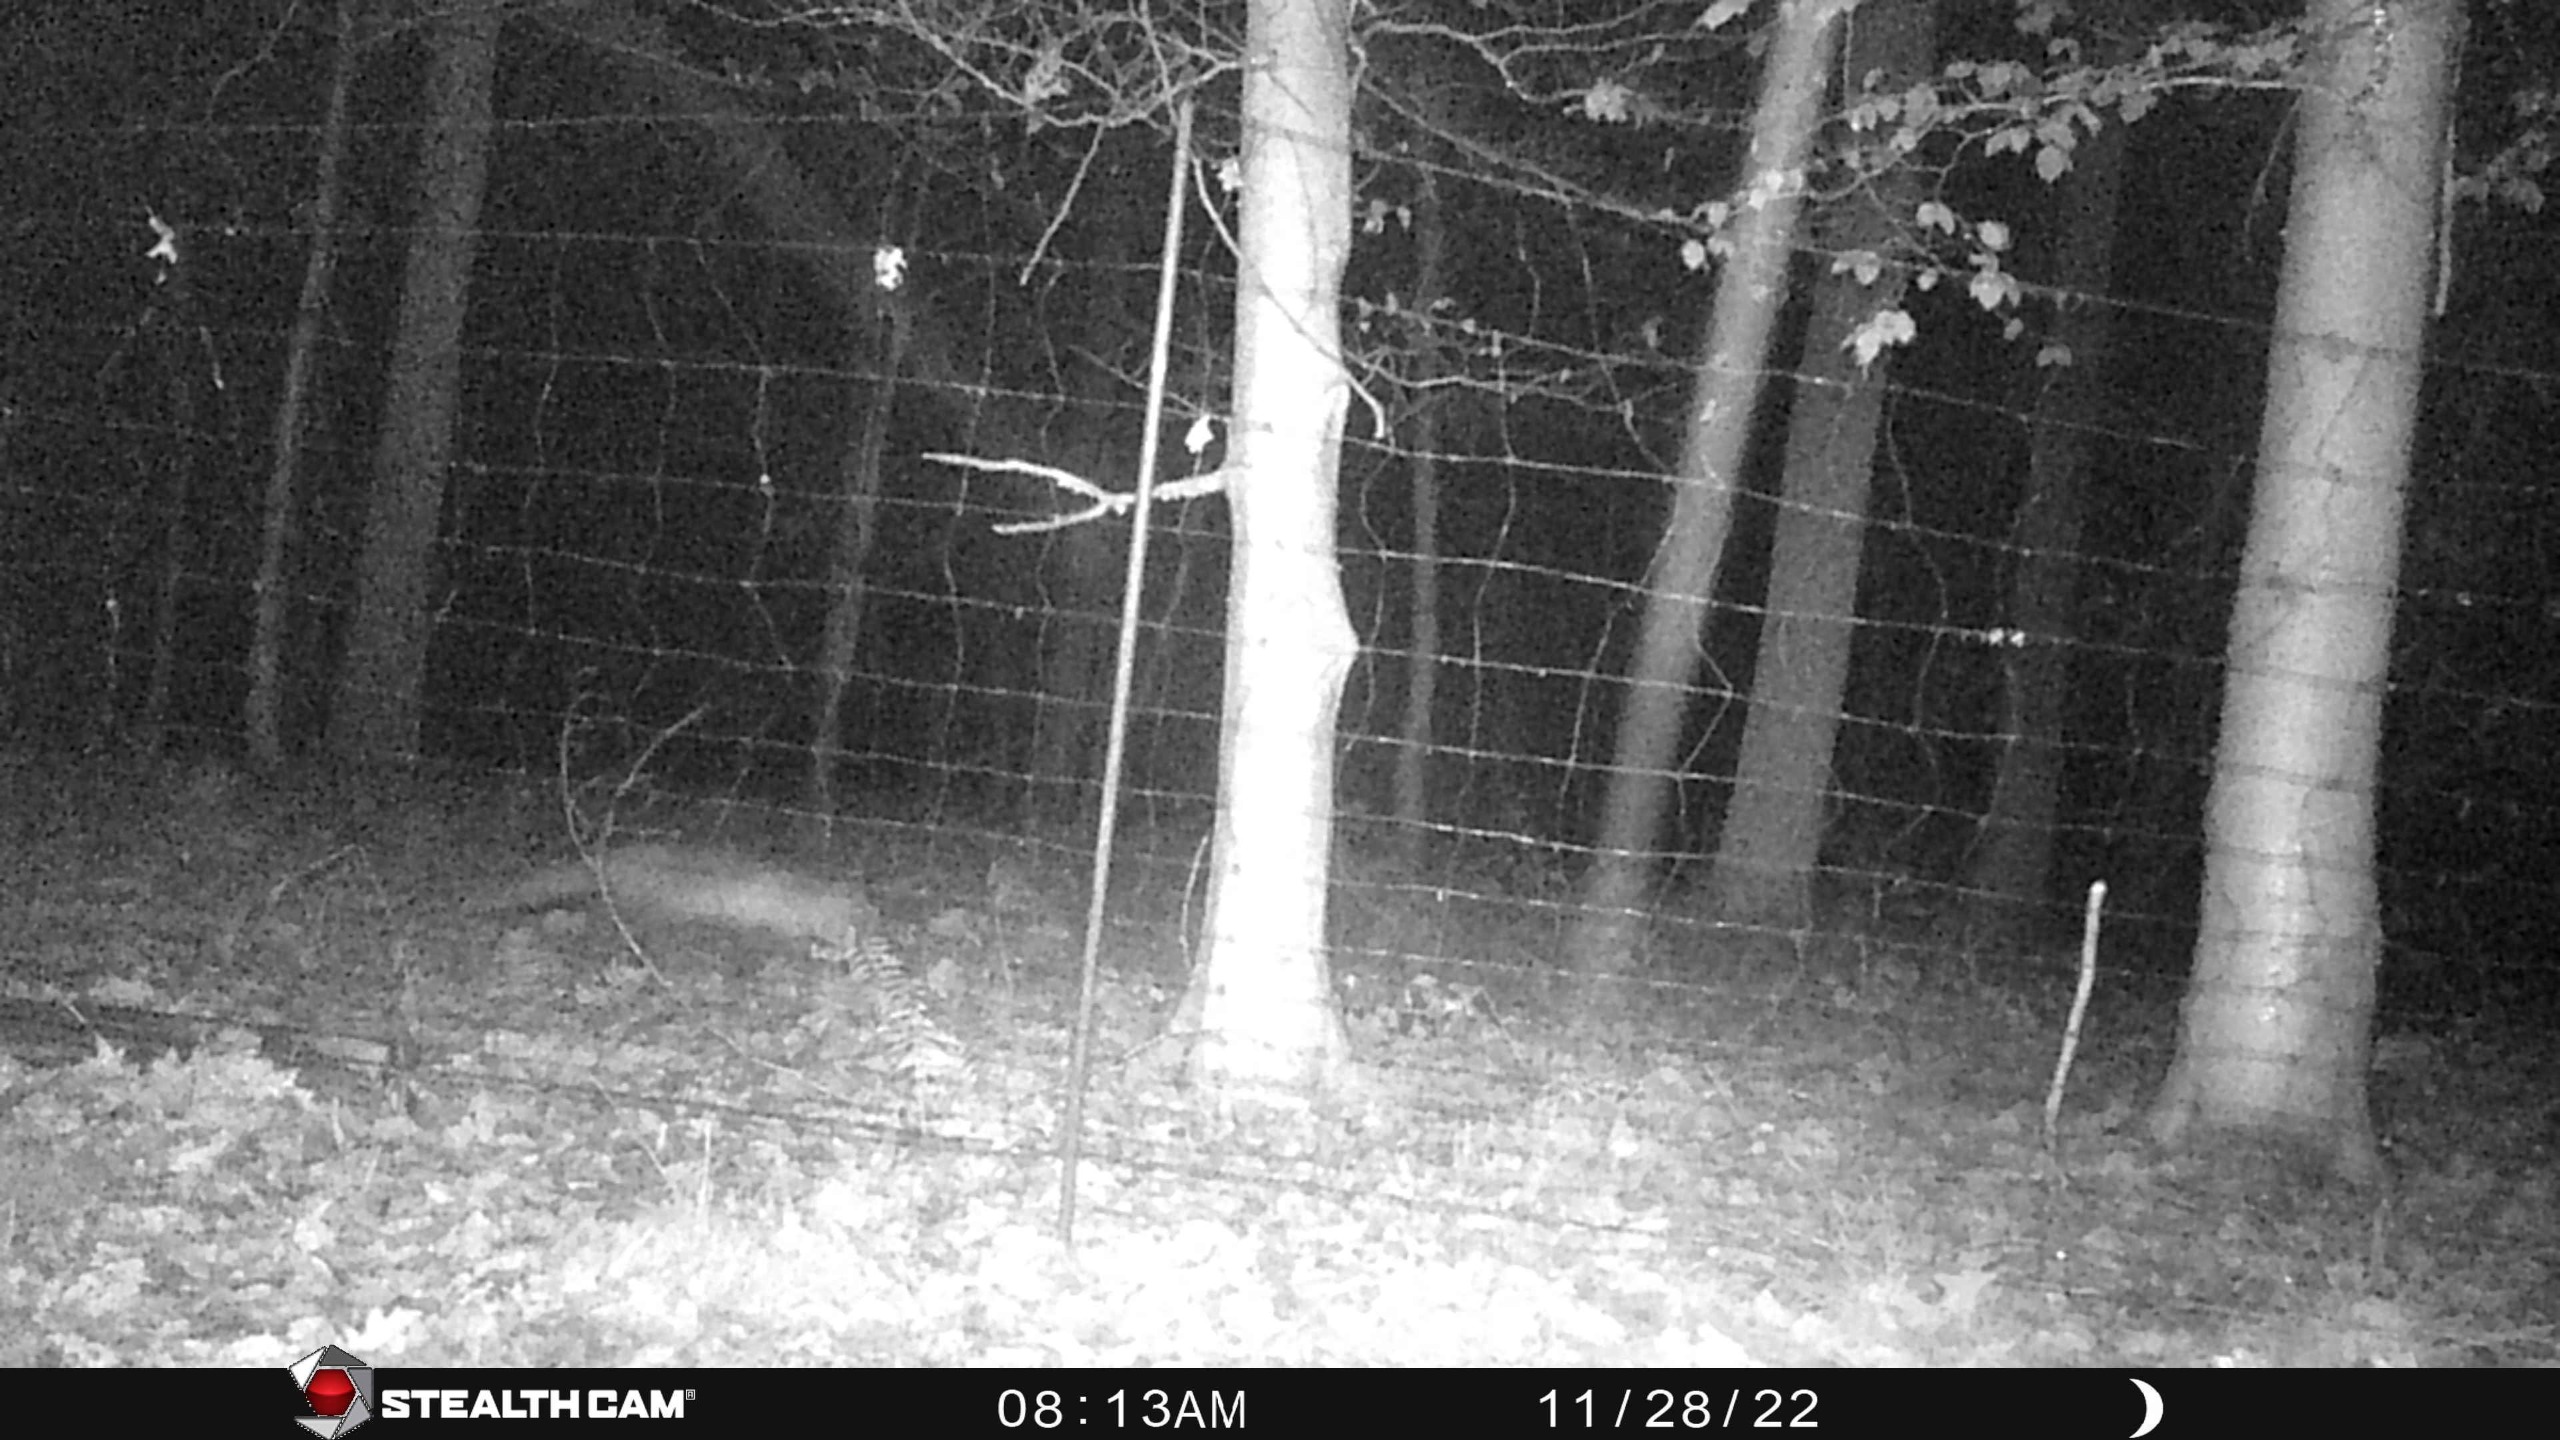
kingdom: Animalia
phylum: Chordata
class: Mammalia
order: Carnivora
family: Canidae
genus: Vulpes
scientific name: Vulpes vulpes
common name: Ræv
